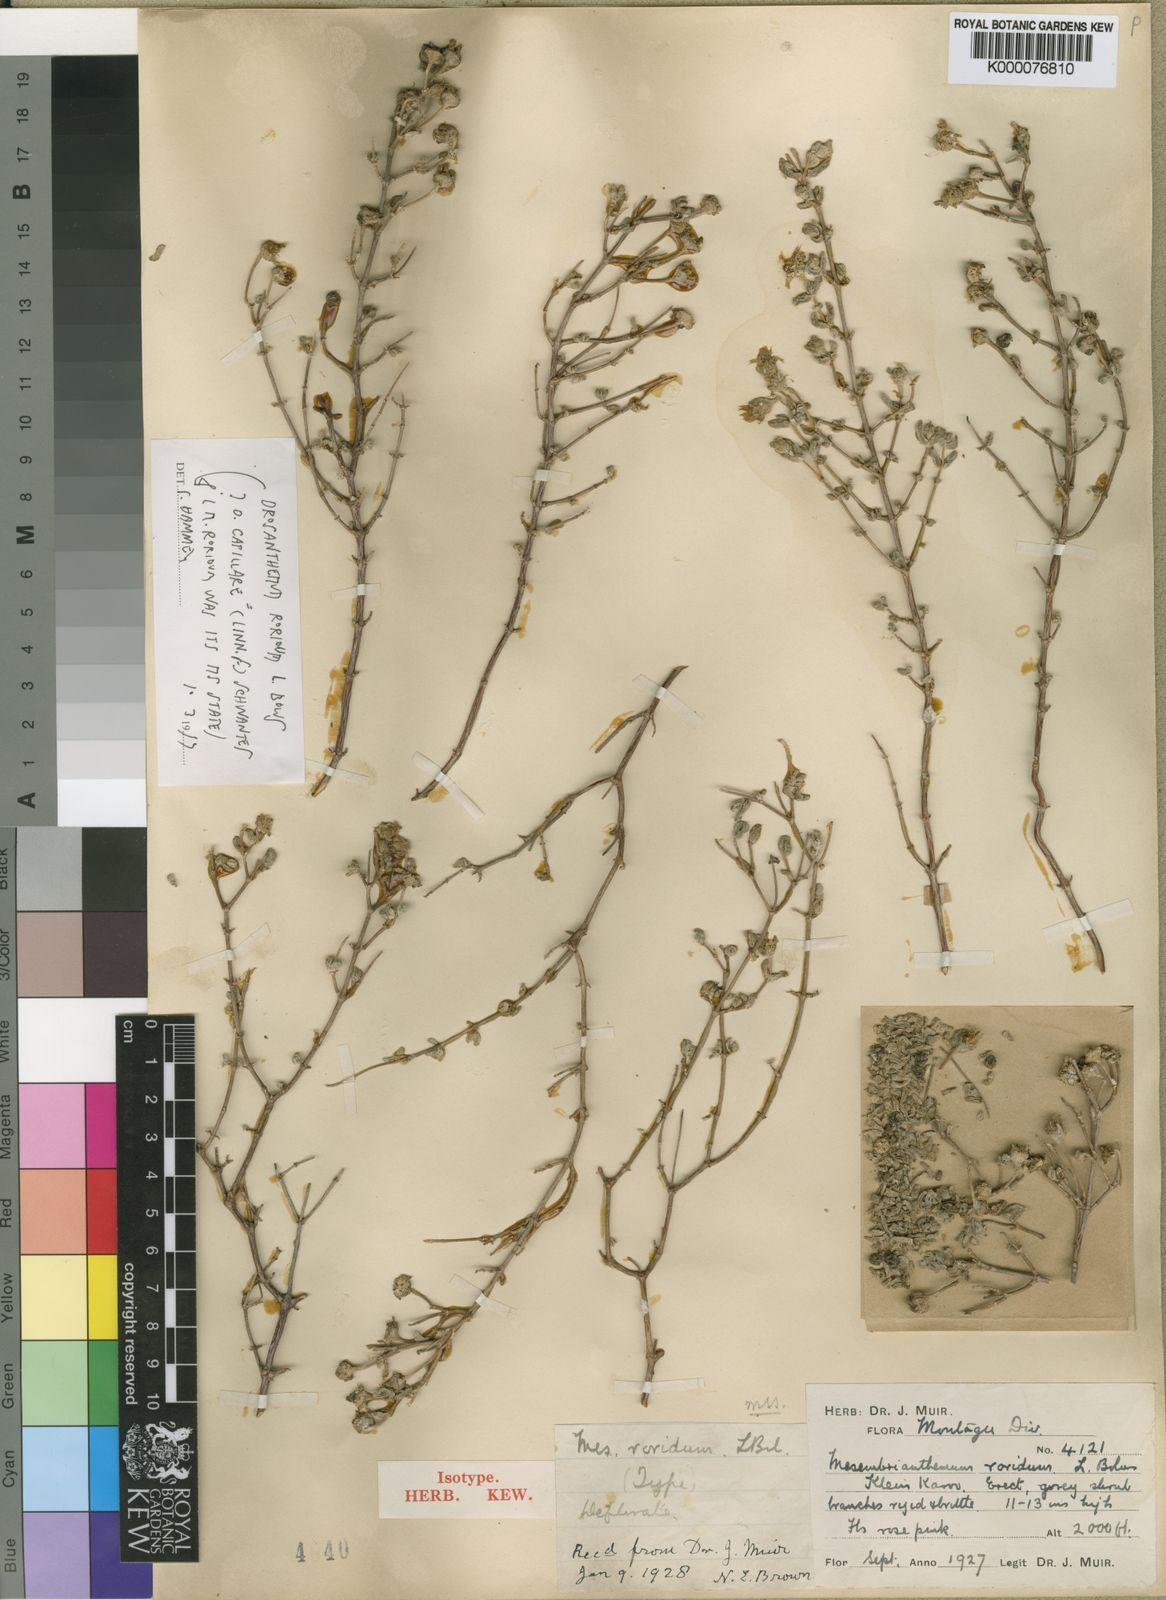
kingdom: Plantae
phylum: Tracheophyta
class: Magnoliopsida
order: Caryophyllales
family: Aizoaceae
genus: Drosanthemum
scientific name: Drosanthemum subcompressum
